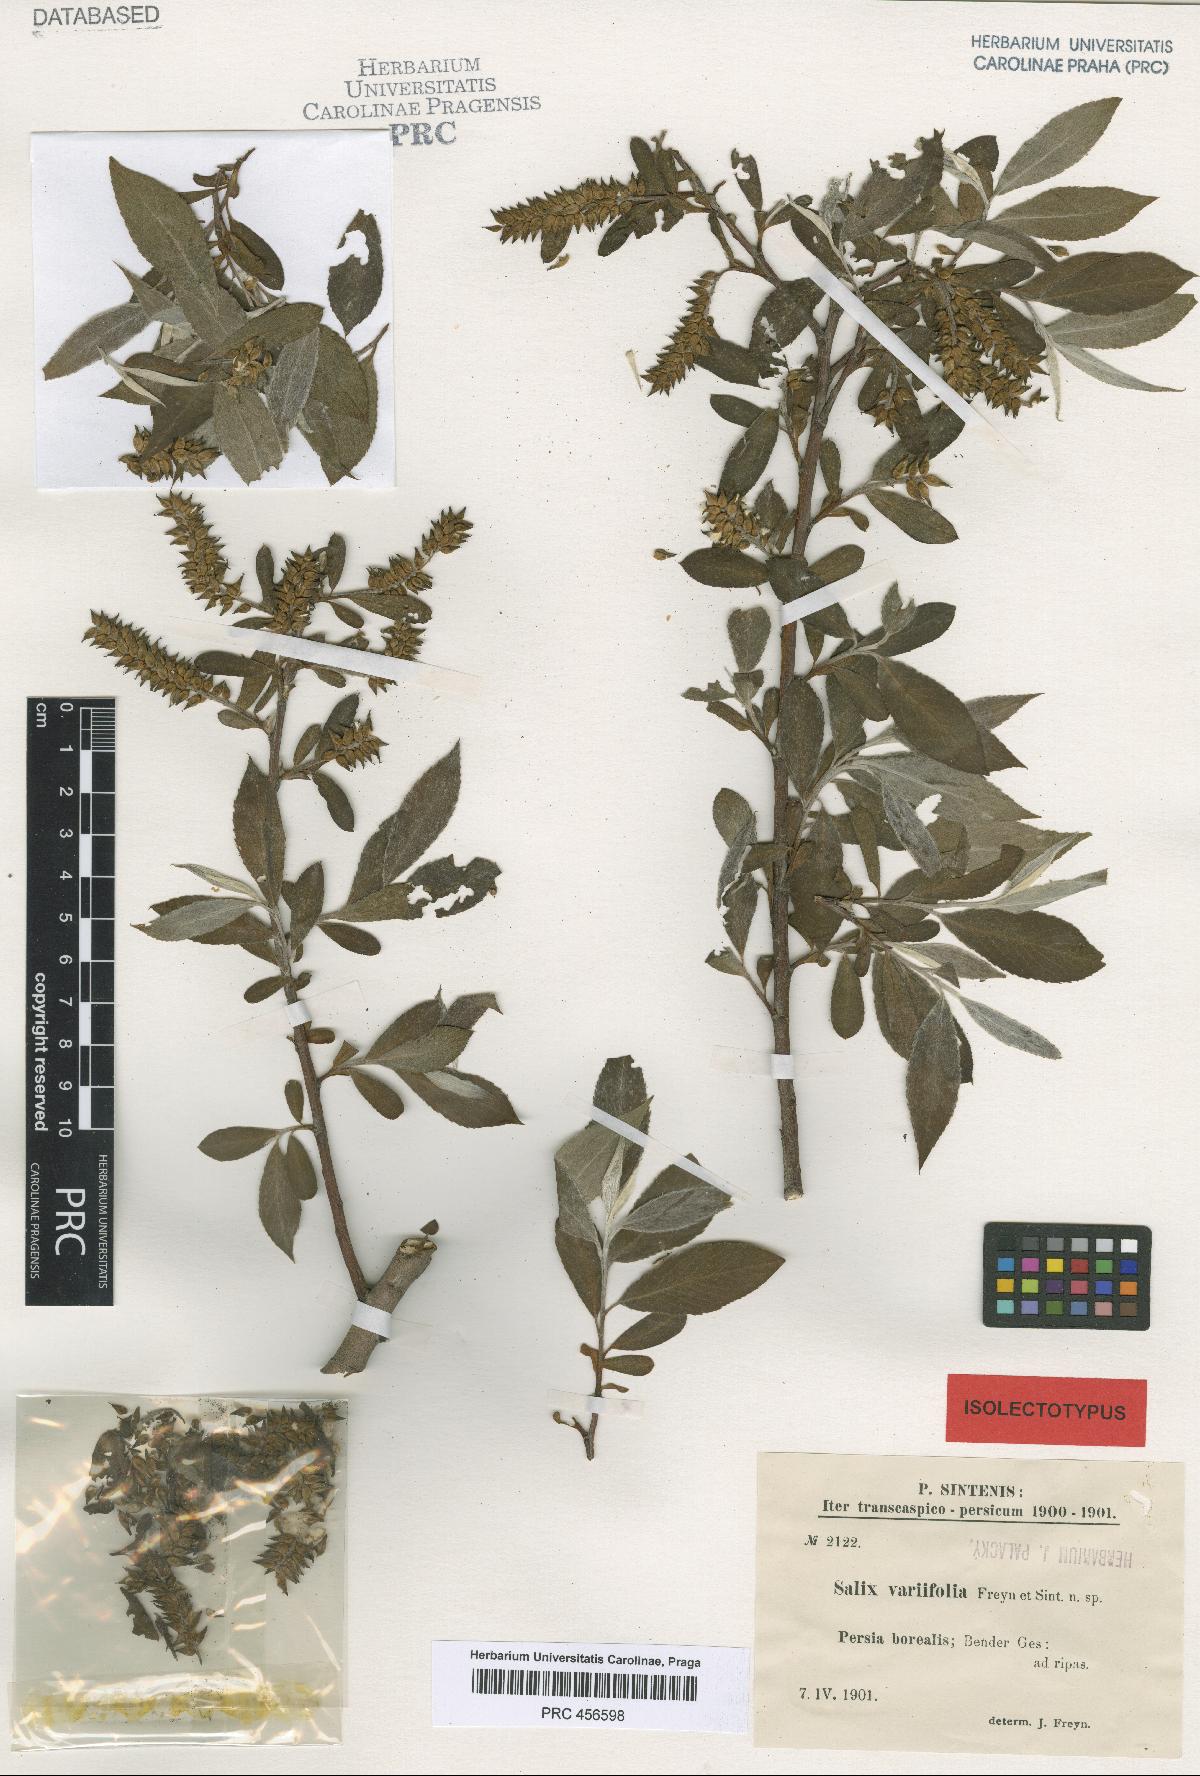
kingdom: Plantae
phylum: Tracheophyta
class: Magnoliopsida
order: Malpighiales
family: Salicaceae
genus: Salix
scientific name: Salix excelsa
